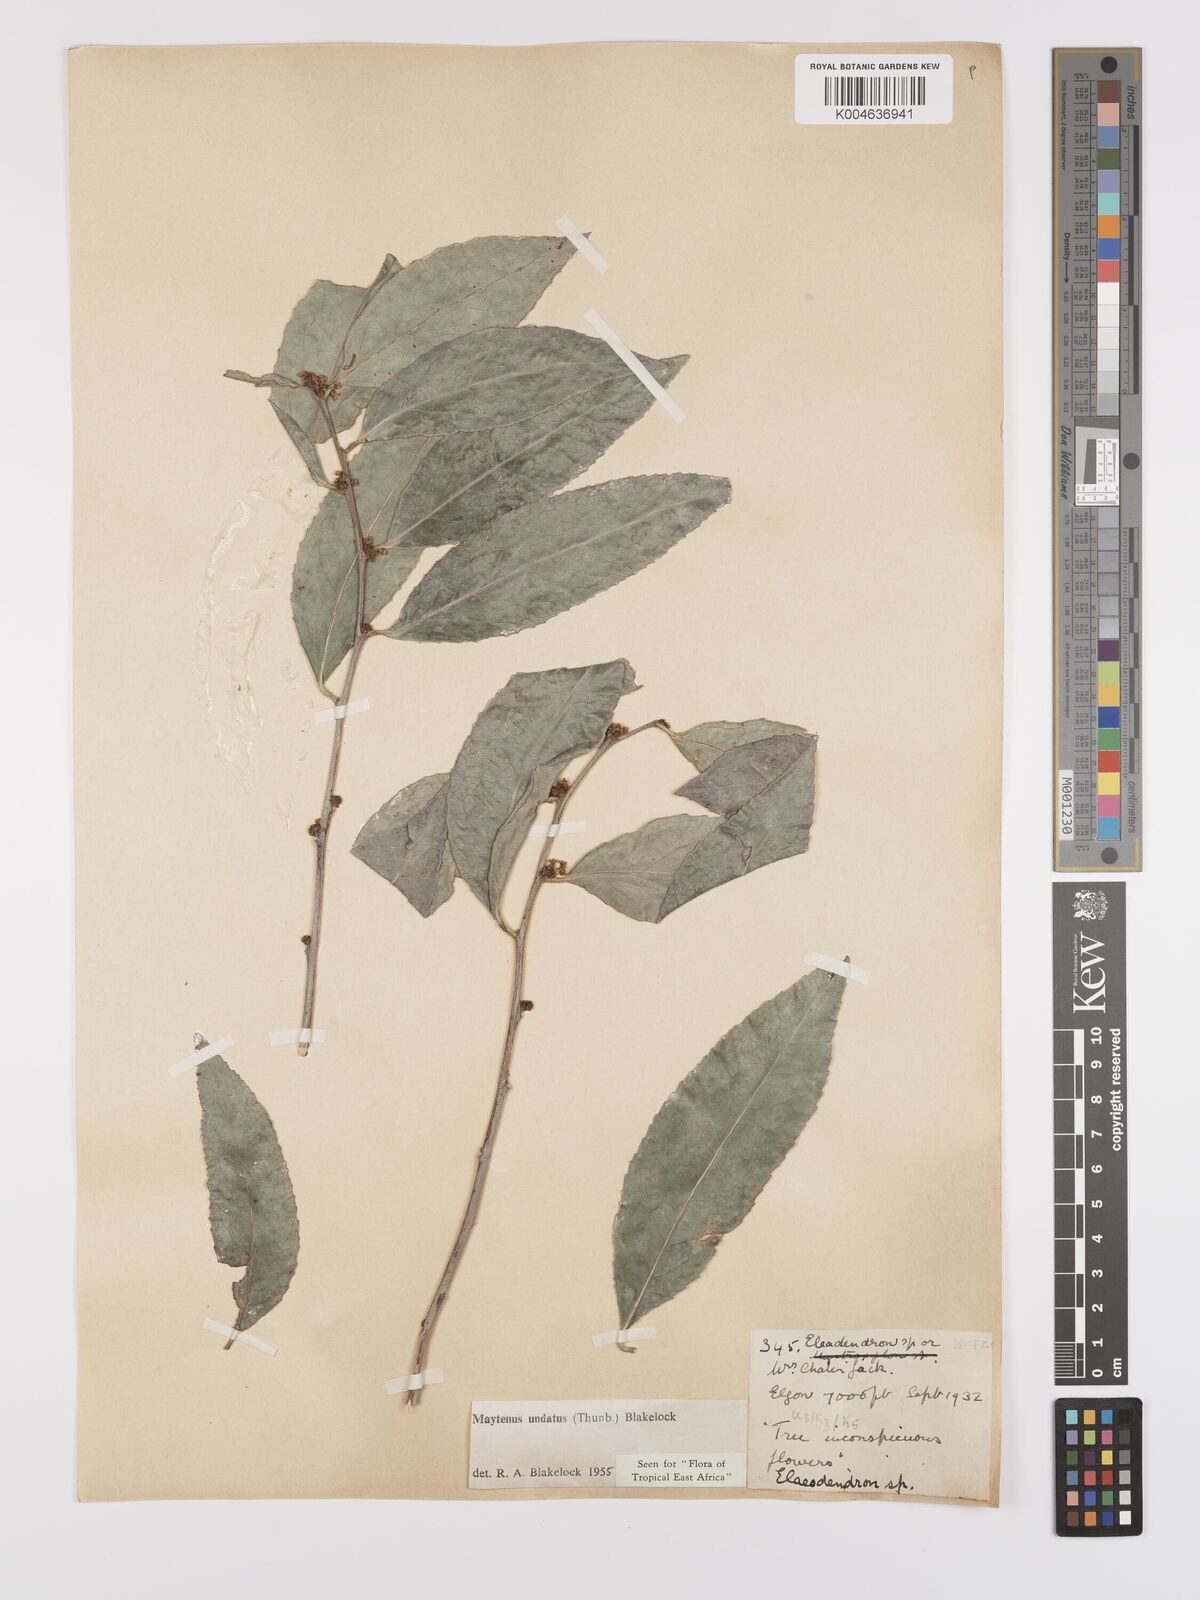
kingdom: Plantae
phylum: Tracheophyta
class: Magnoliopsida
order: Celastrales
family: Celastraceae
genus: Gymnosporia
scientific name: Gymnosporia undata
